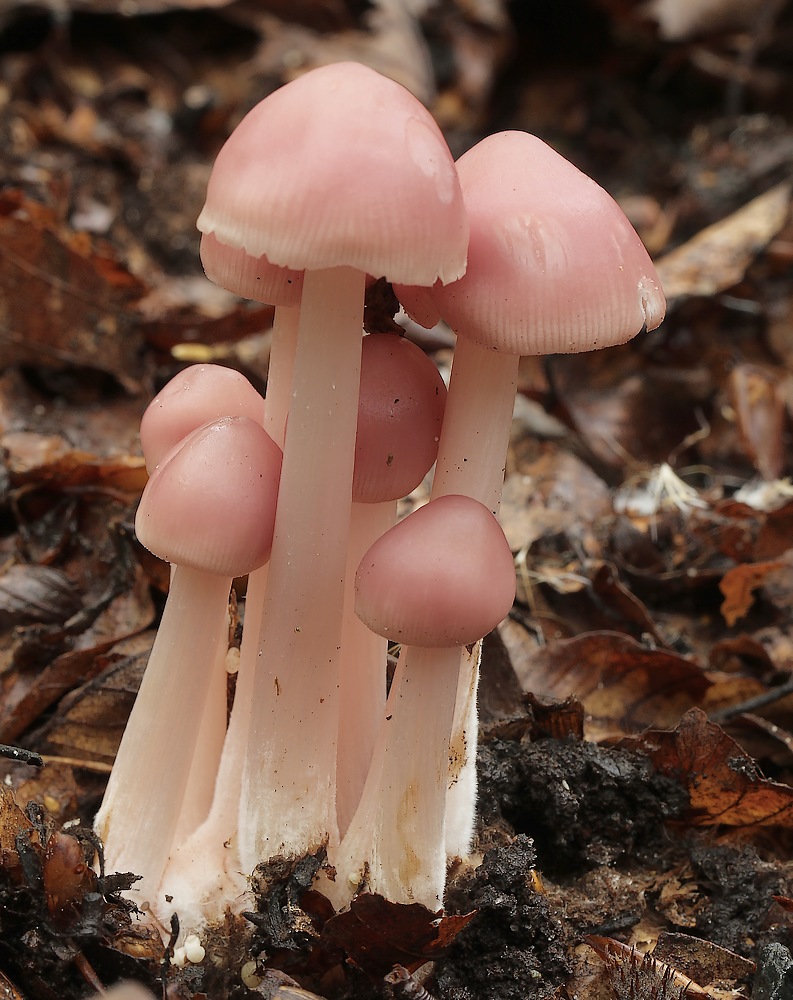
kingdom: Fungi
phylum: Basidiomycota
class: Agaricomycetes
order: Agaricales
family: Mycenaceae
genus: Mycena
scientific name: Mycena rosea
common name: rosa huesvamp
